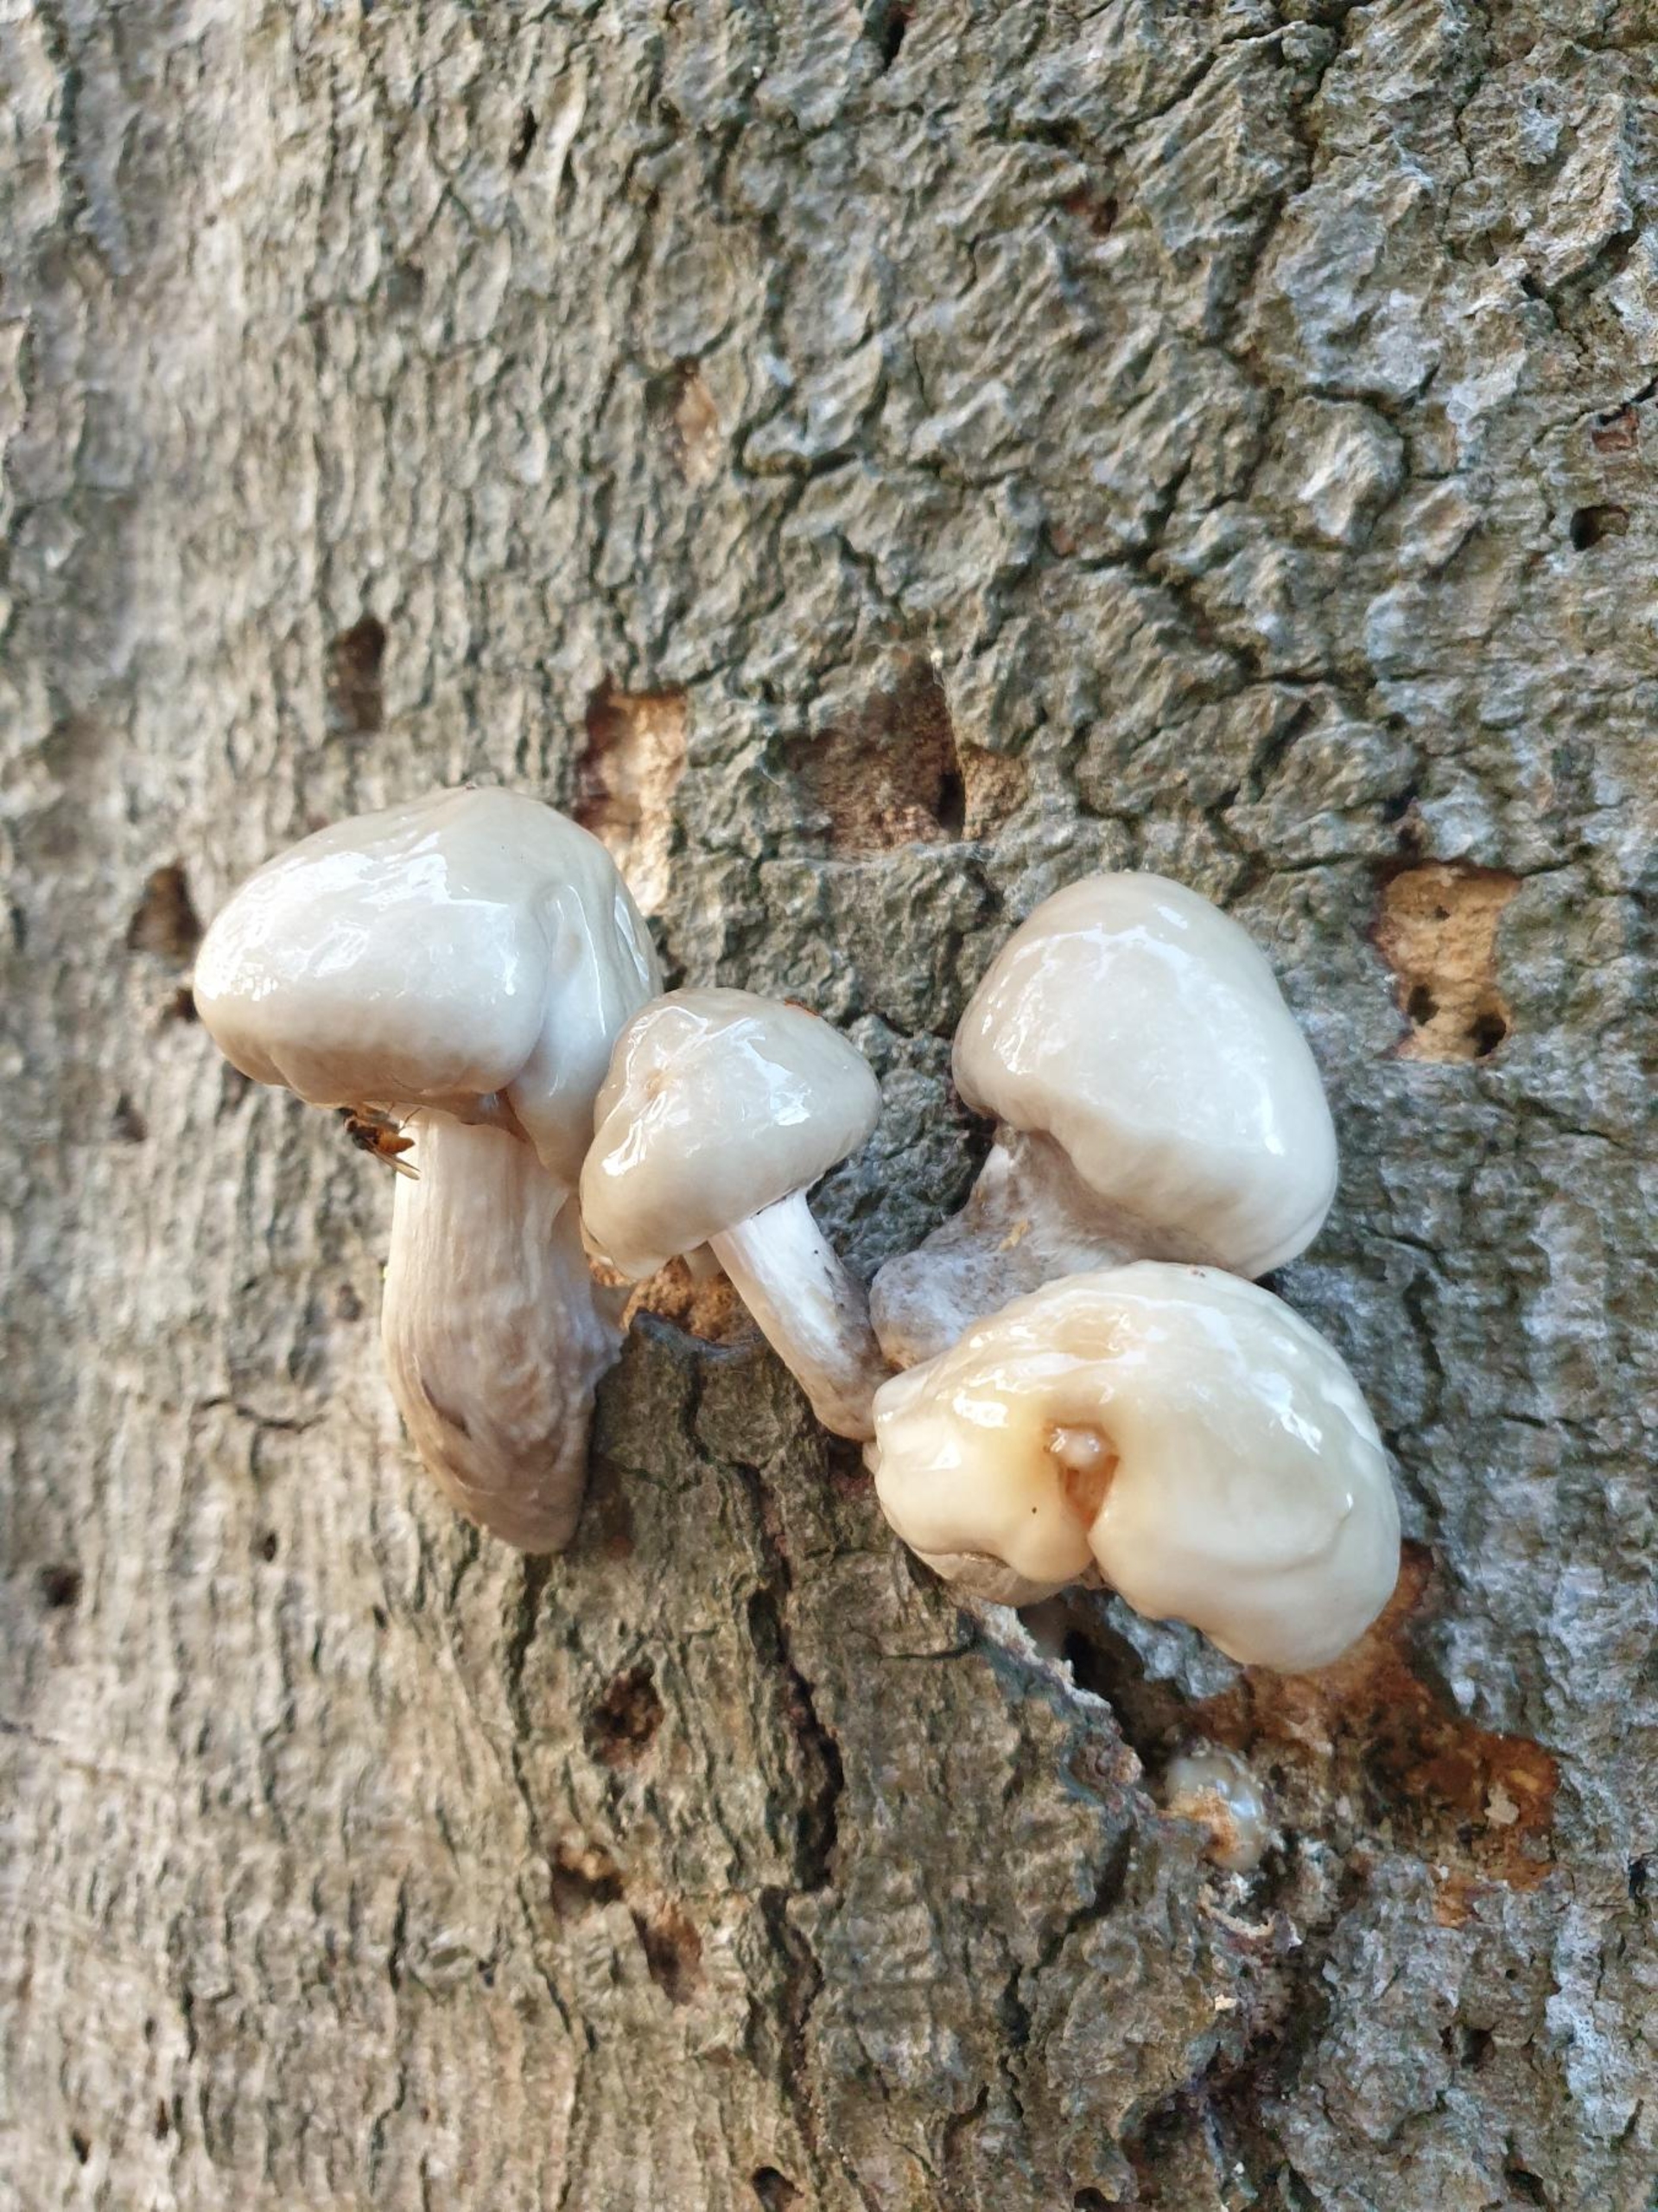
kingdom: Fungi
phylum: Basidiomycota
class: Agaricomycetes
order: Agaricales
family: Physalacriaceae
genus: Mucidula
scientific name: Mucidula
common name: Porcelænshat
